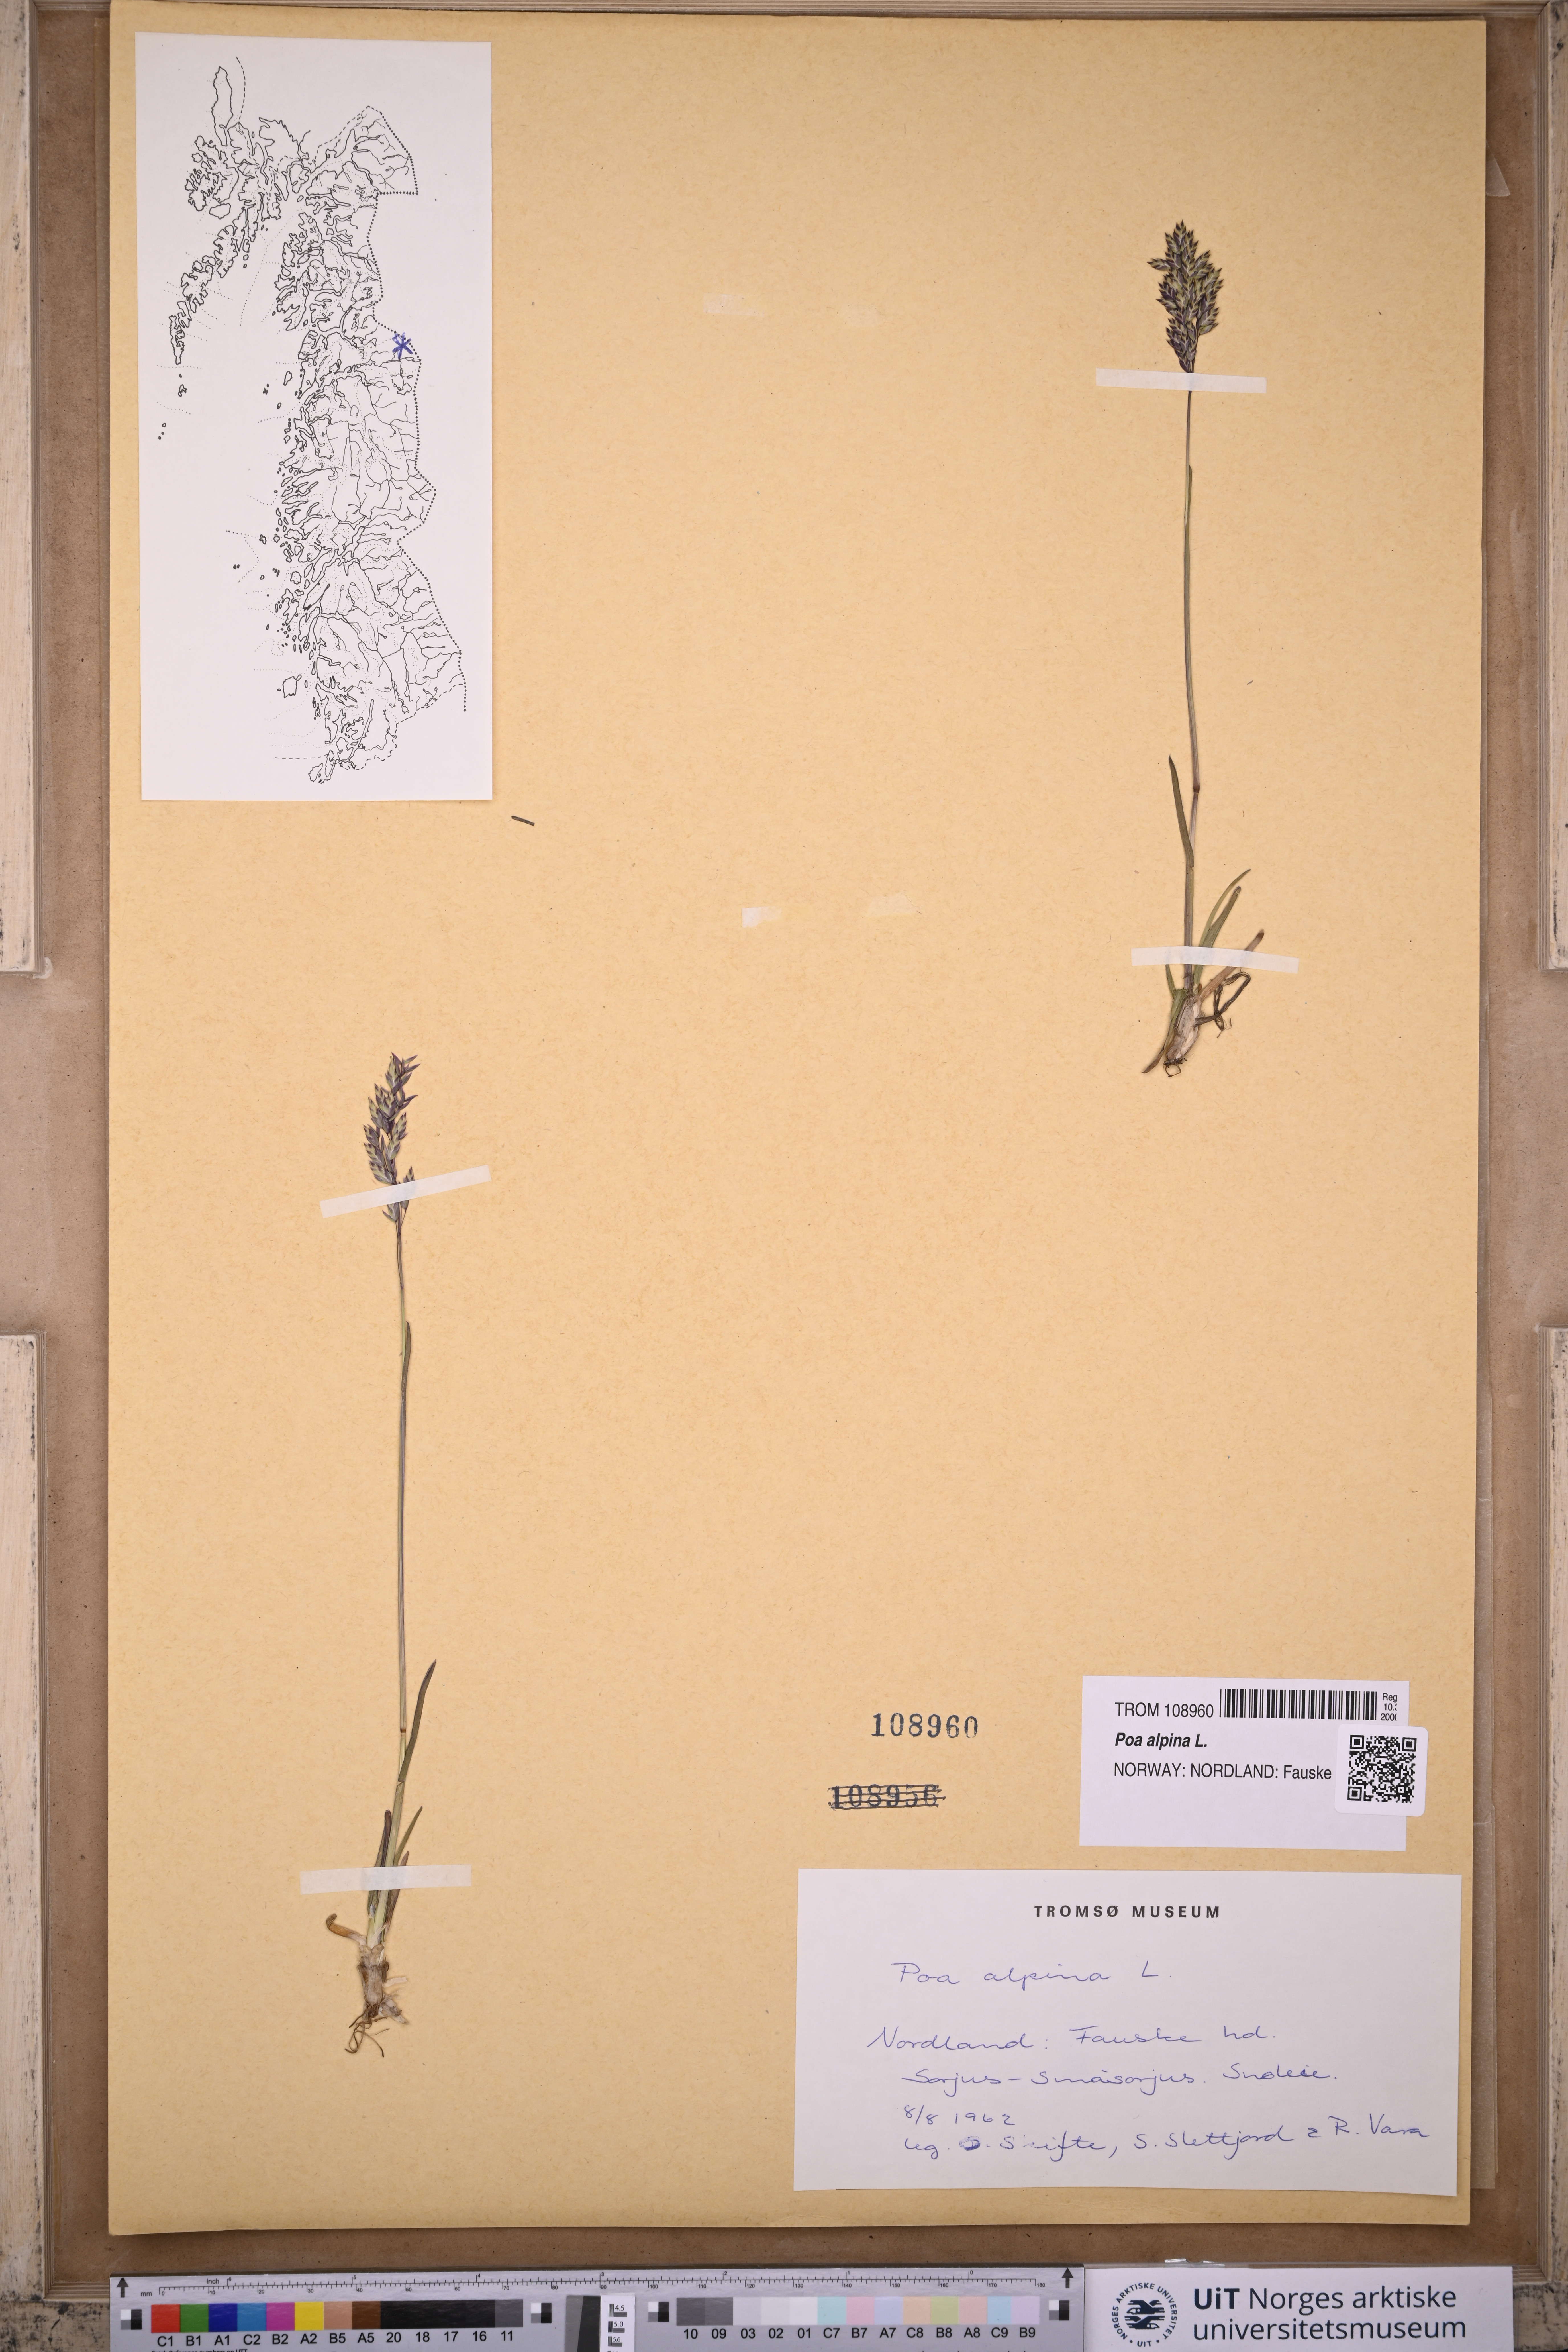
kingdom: Plantae
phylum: Tracheophyta
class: Liliopsida
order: Poales
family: Poaceae
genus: Poa
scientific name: Poa alpina
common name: Alpine bluegrass
